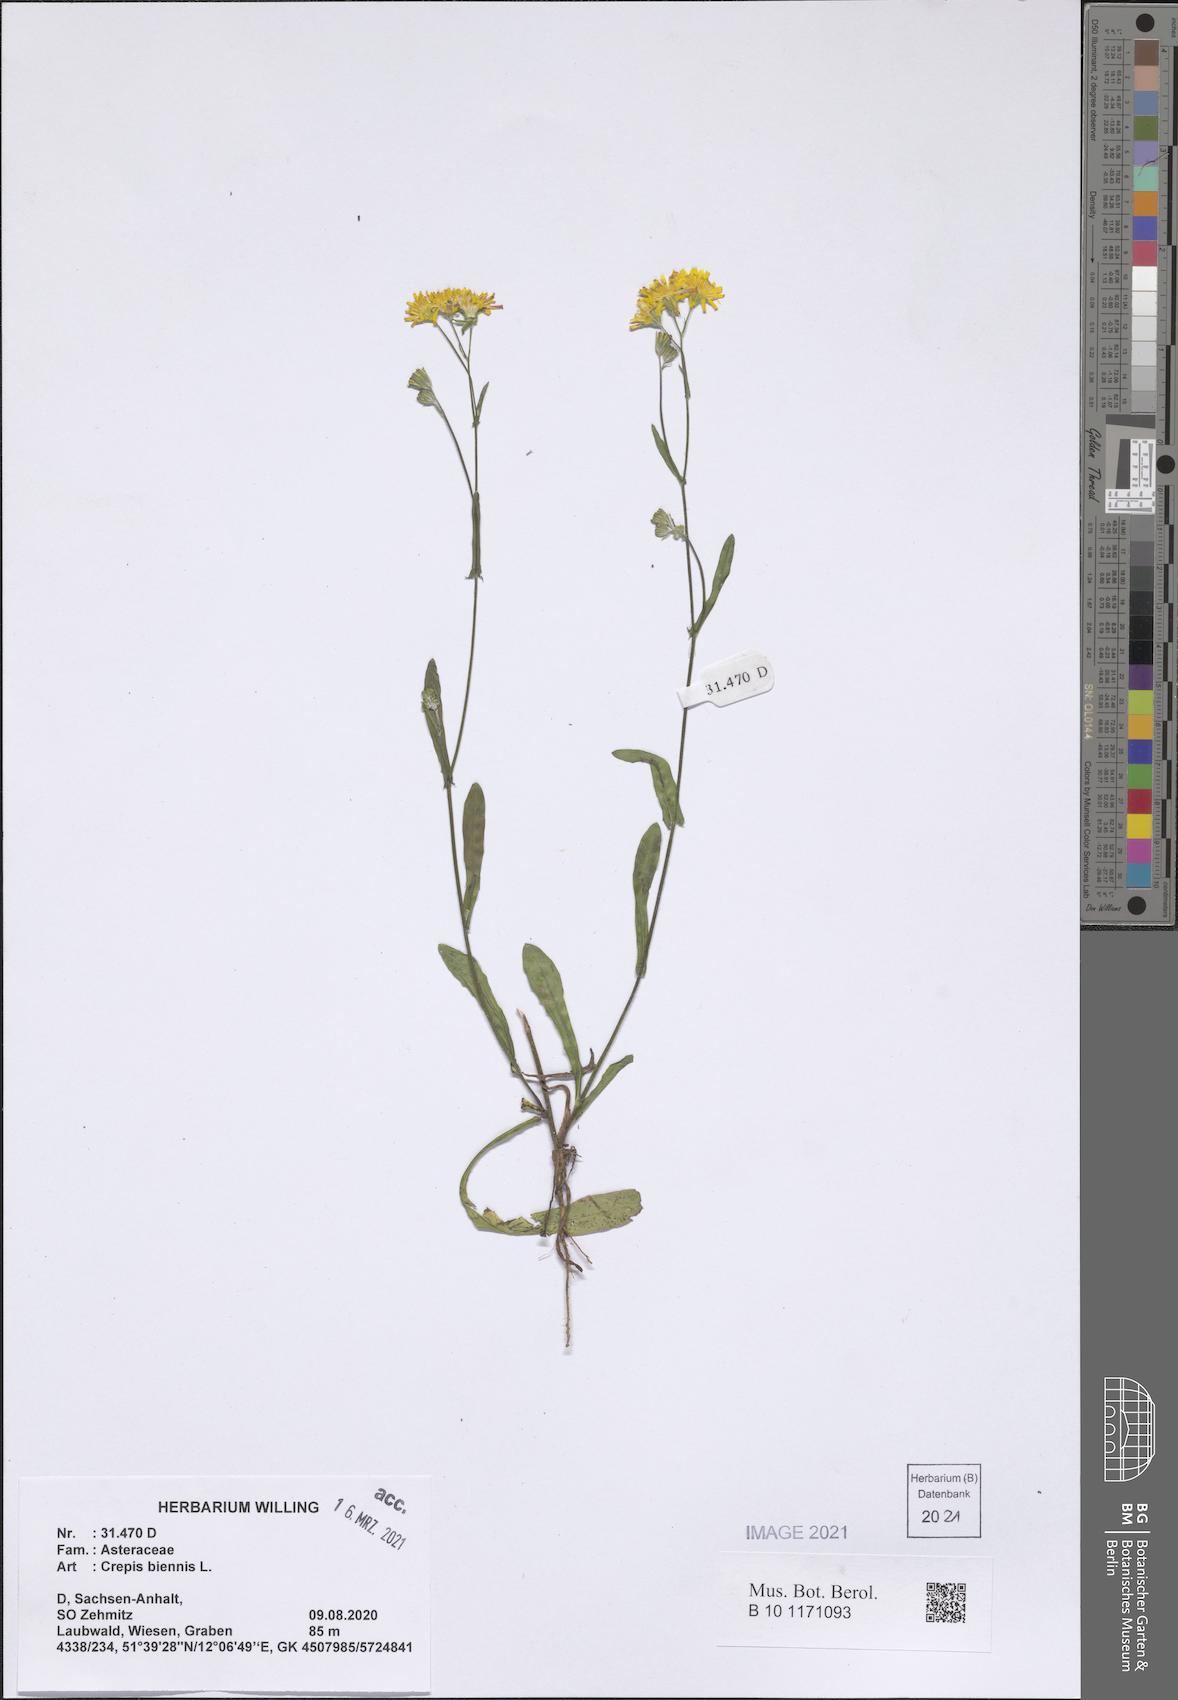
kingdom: Plantae
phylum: Tracheophyta
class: Magnoliopsida
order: Asterales
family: Asteraceae
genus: Crepis
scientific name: Crepis biennis
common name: Rough hawk's-beard
